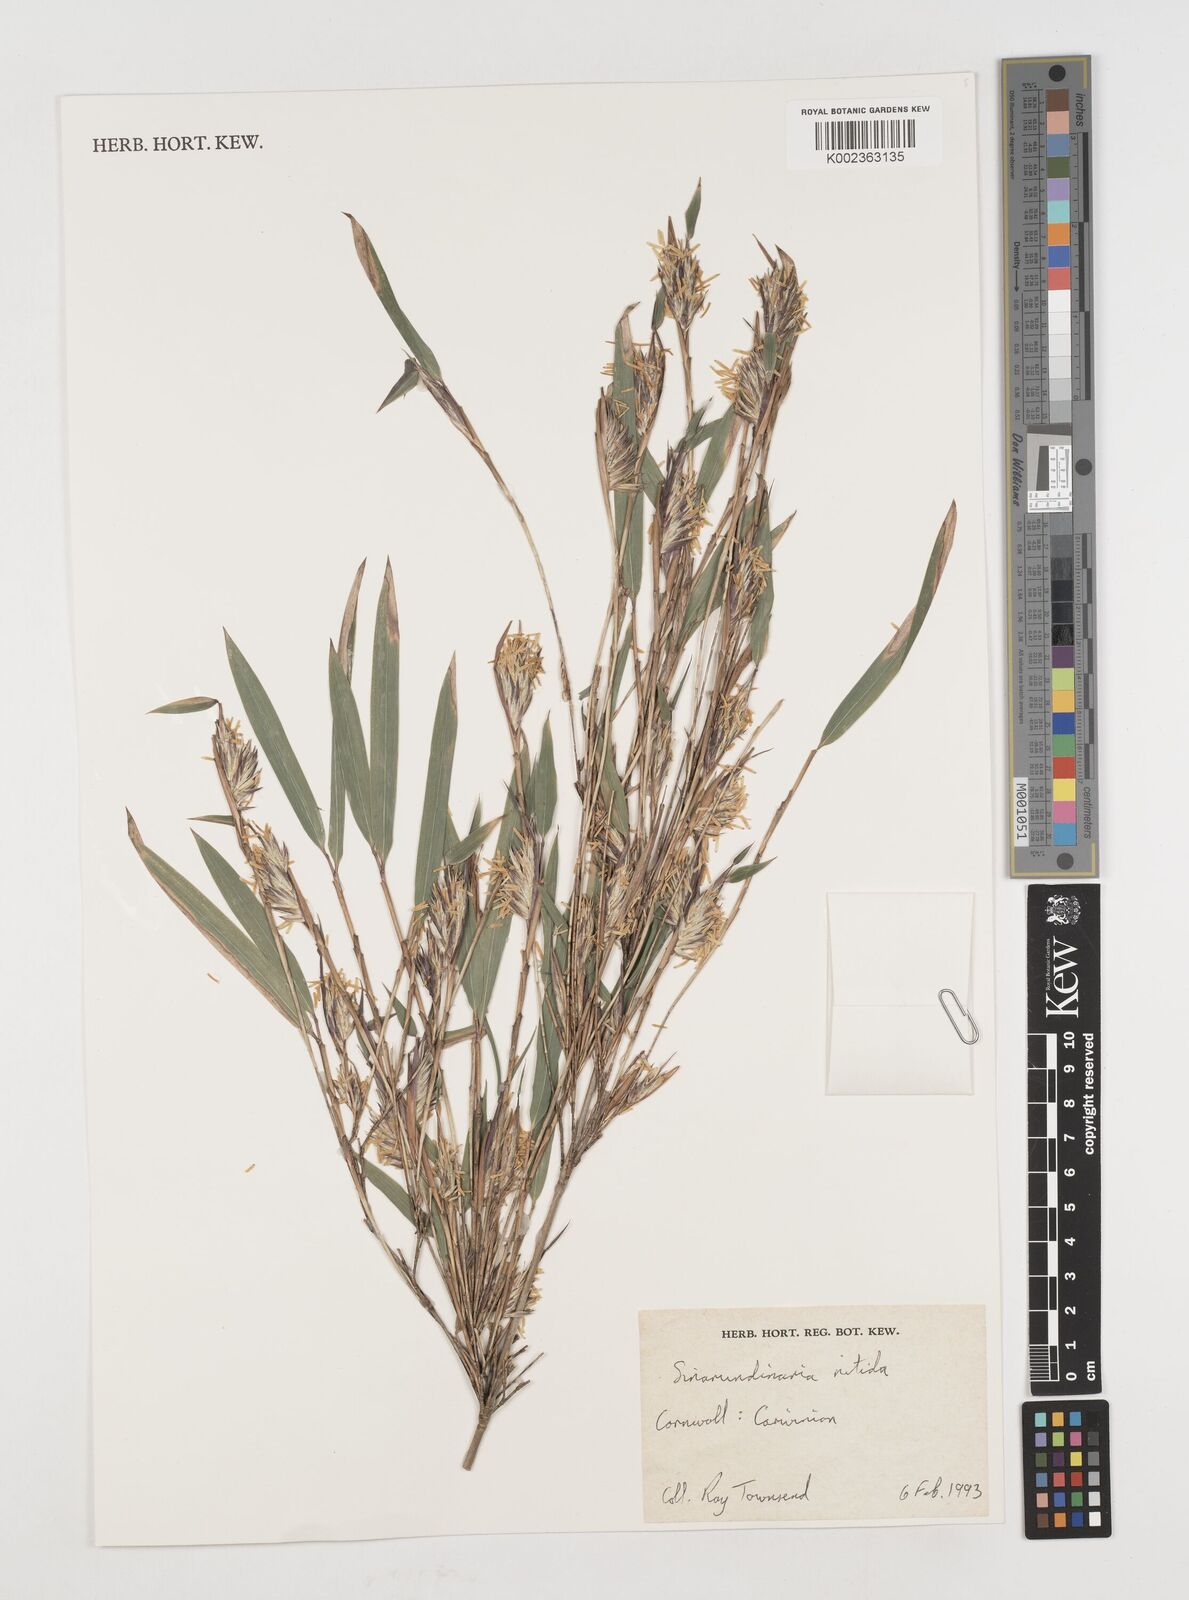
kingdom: Plantae
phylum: Tracheophyta
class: Liliopsida
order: Poales
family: Poaceae
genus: Fargesia
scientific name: Fargesia nitida ex
